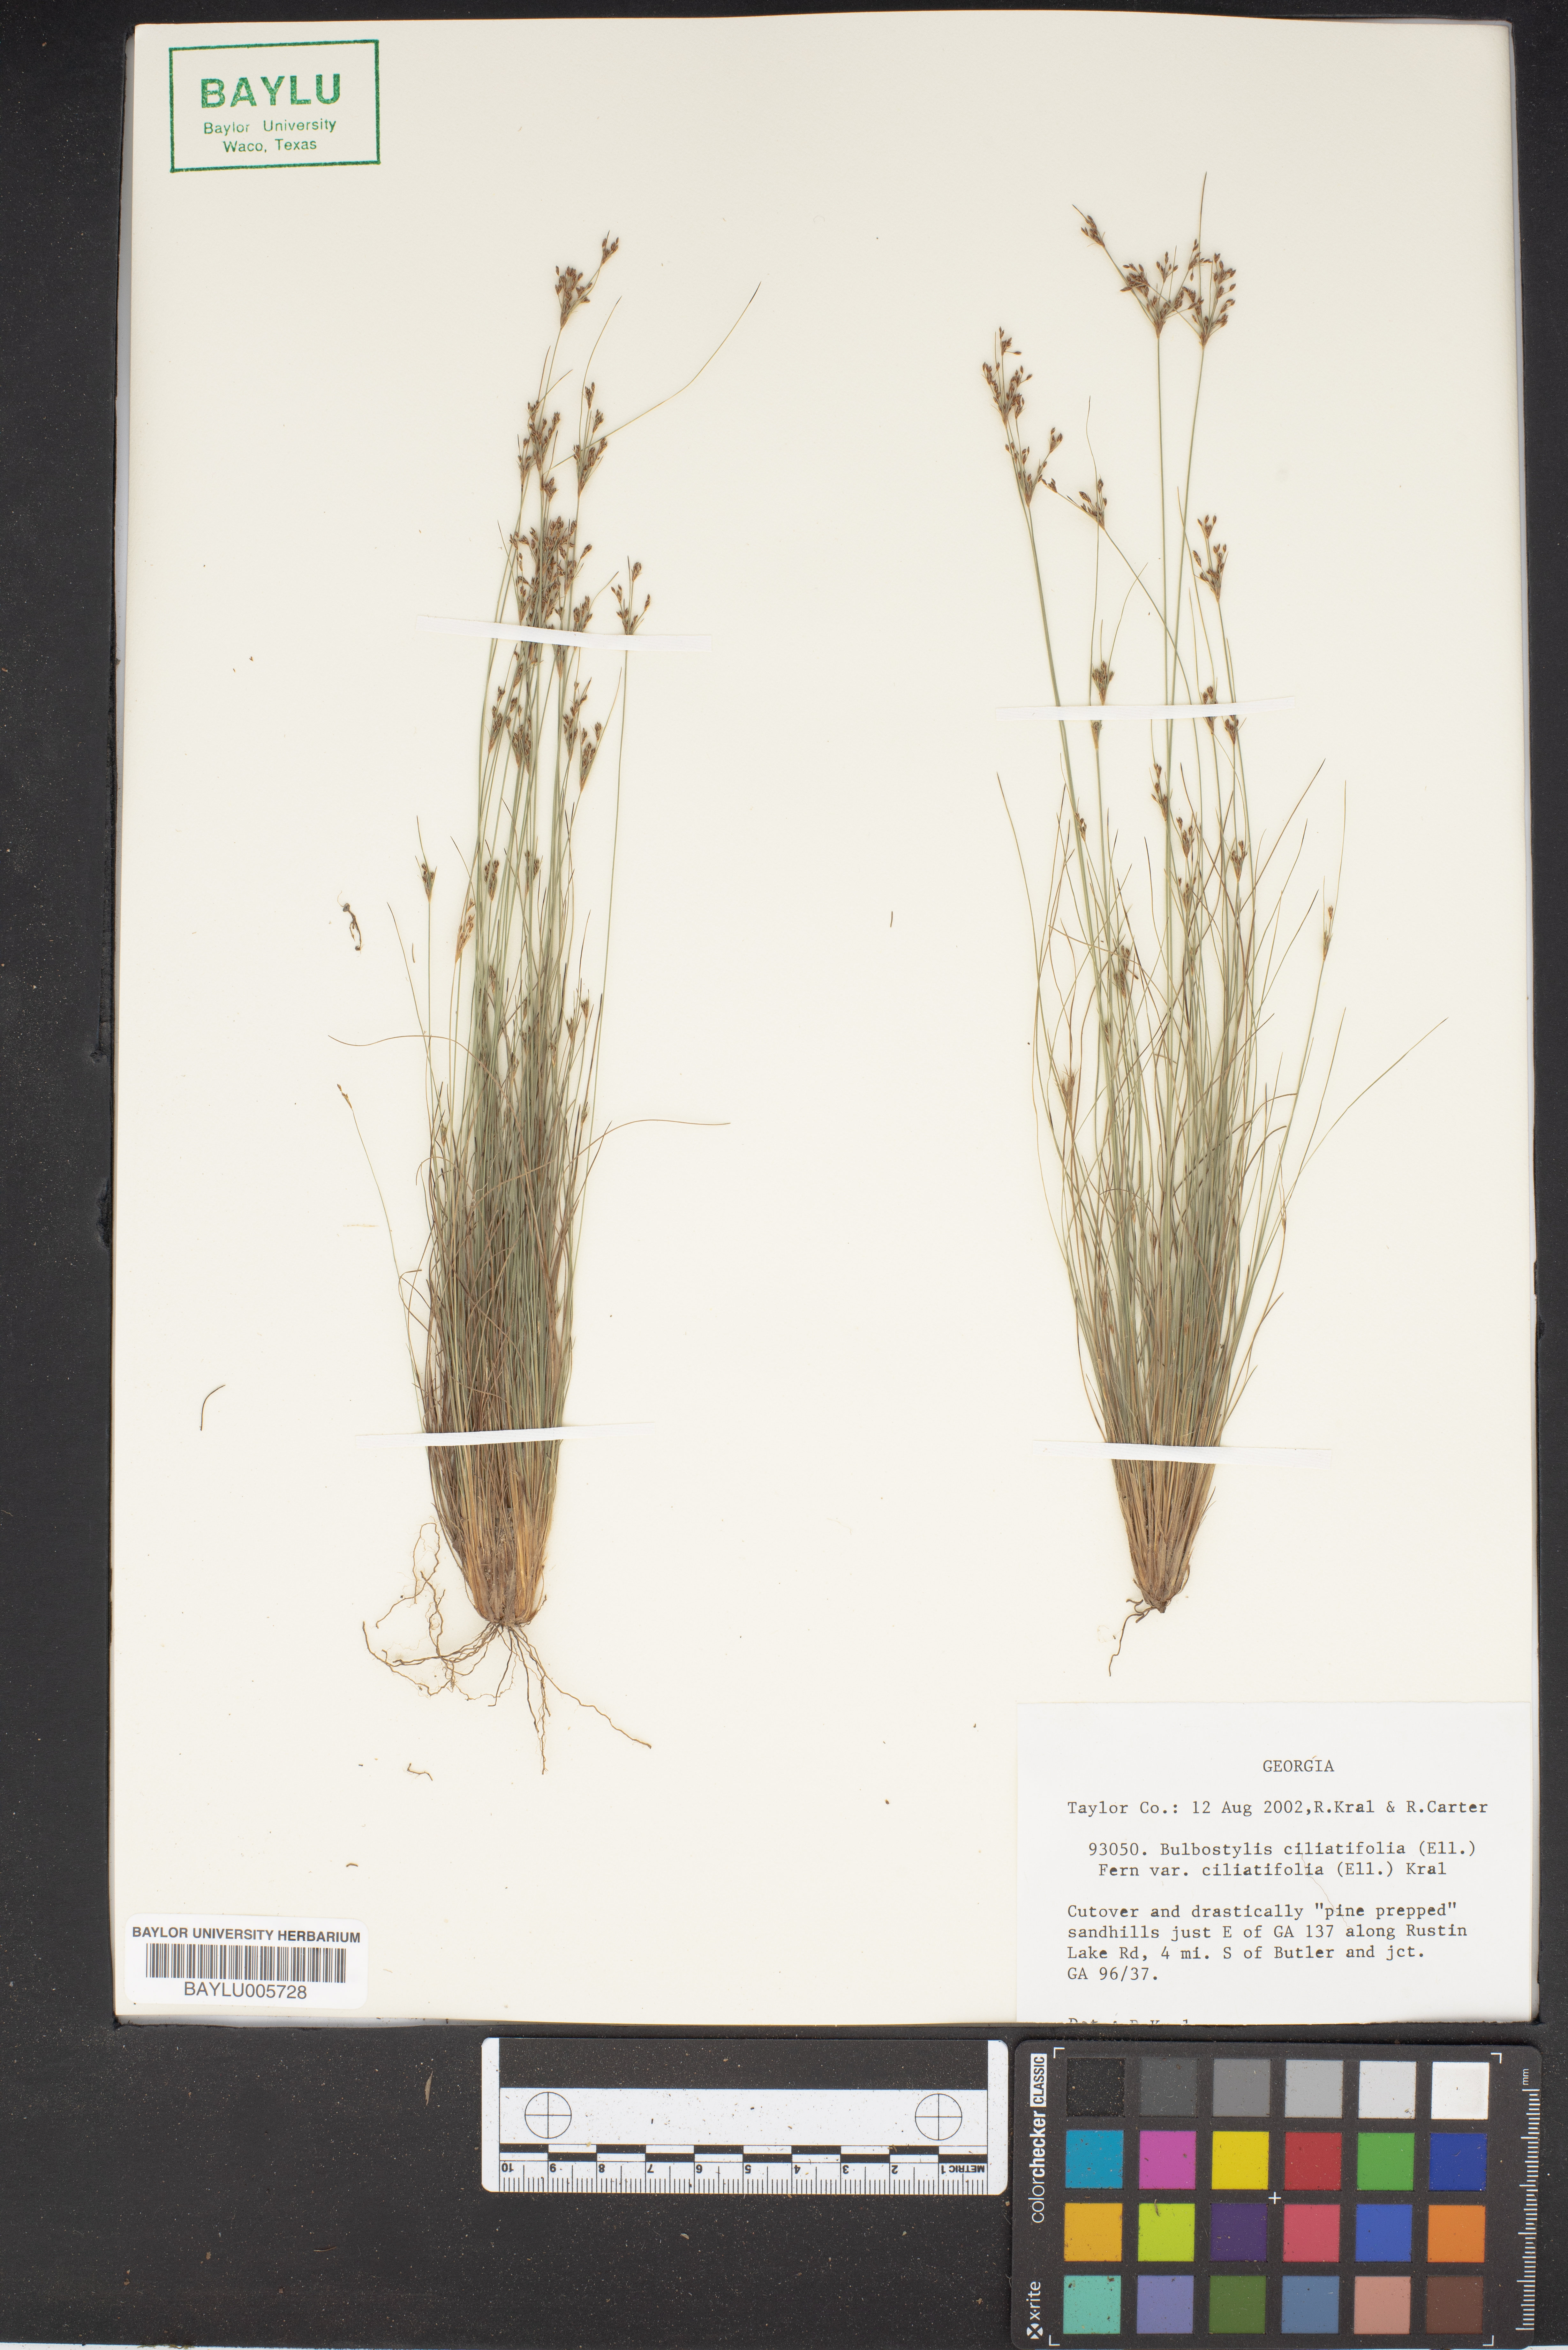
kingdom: Plantae
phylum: Tracheophyta
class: Liliopsida
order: Poales
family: Cyperaceae
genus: Bulbostylis
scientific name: Bulbostylis ciliatifolia
